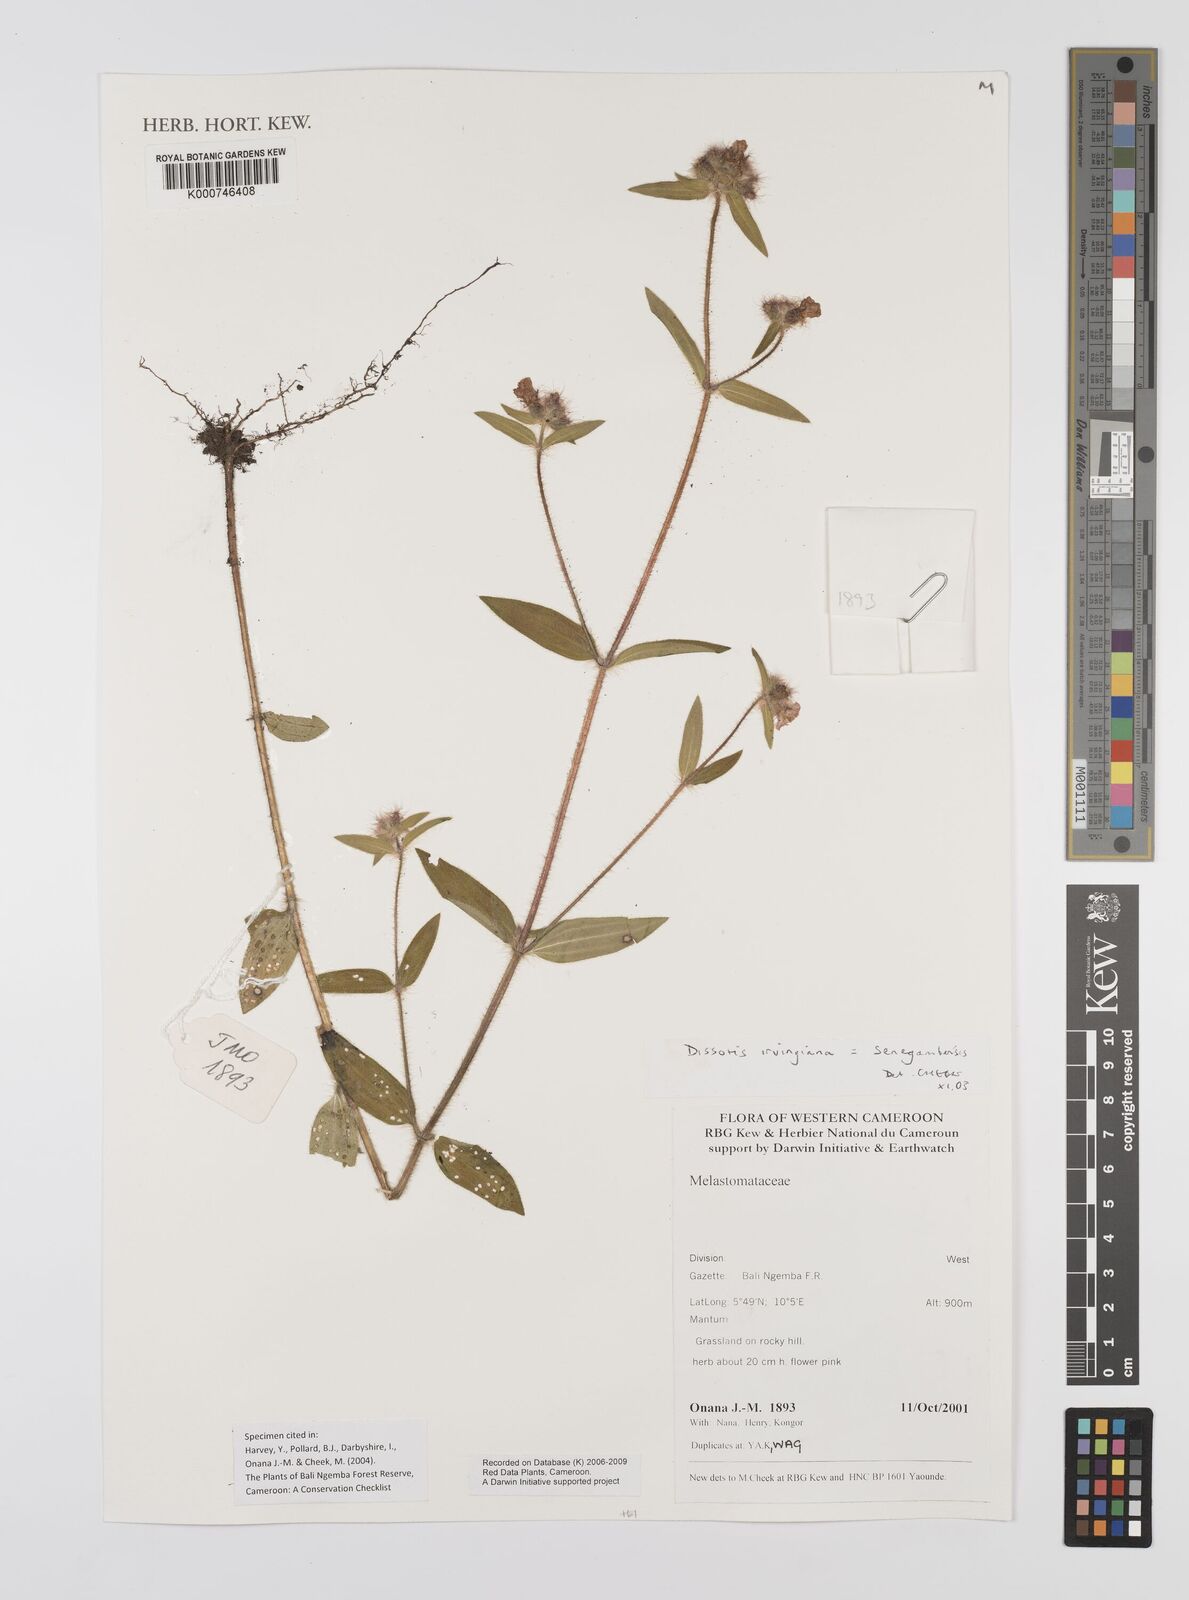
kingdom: Plantae
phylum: Tracheophyta
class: Magnoliopsida
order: Myrtales
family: Melastomataceae
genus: Antherotoma
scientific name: Antherotoma irvingiana
